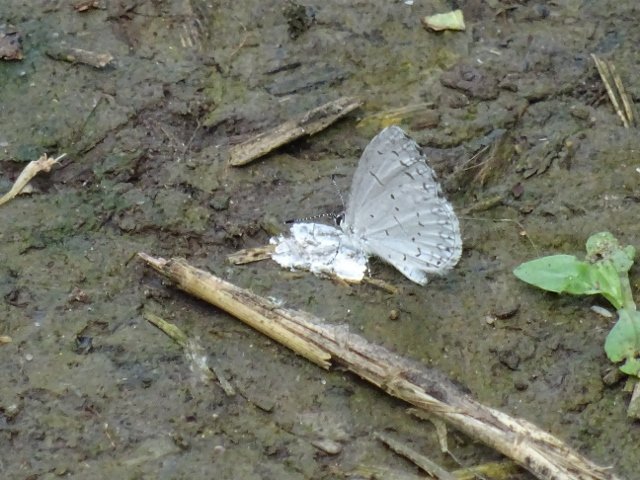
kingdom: Animalia
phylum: Arthropoda
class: Insecta
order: Lepidoptera
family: Lycaenidae
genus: Celastrina
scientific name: Celastrina
